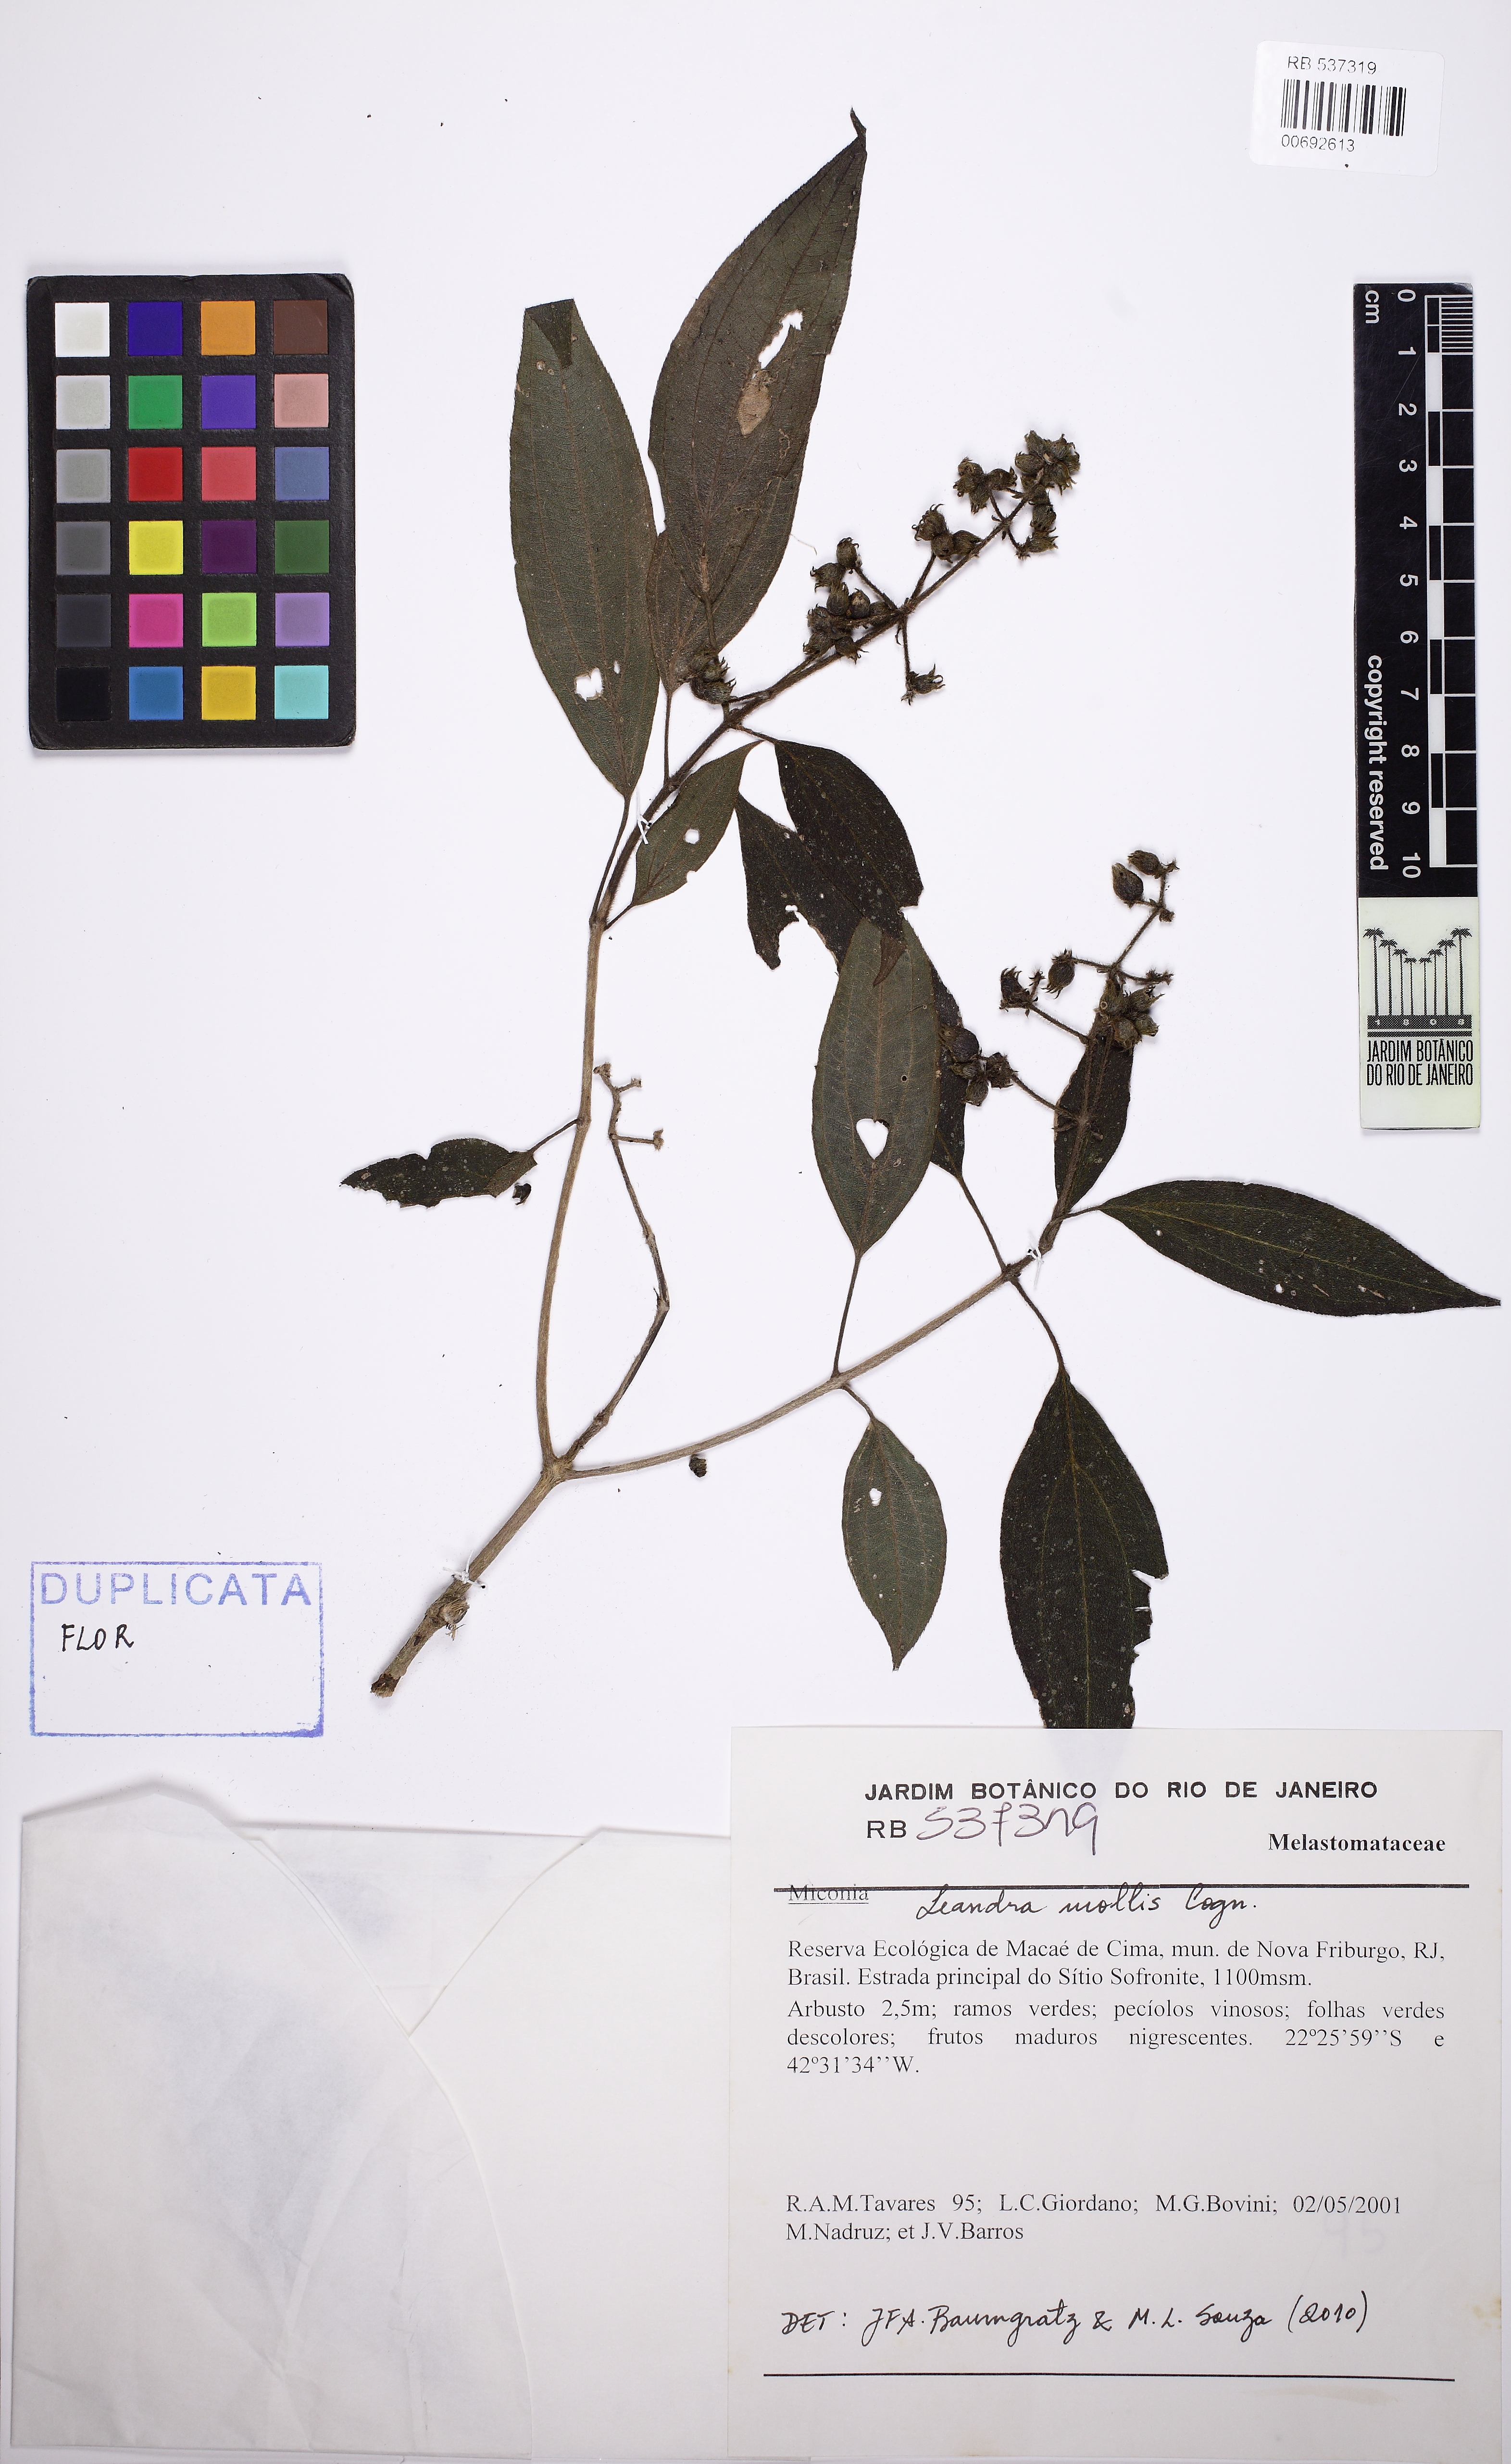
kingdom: Plantae
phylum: Tracheophyta
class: Magnoliopsida
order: Myrtales
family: Melastomataceae
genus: Miconia
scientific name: Miconia leamollis
